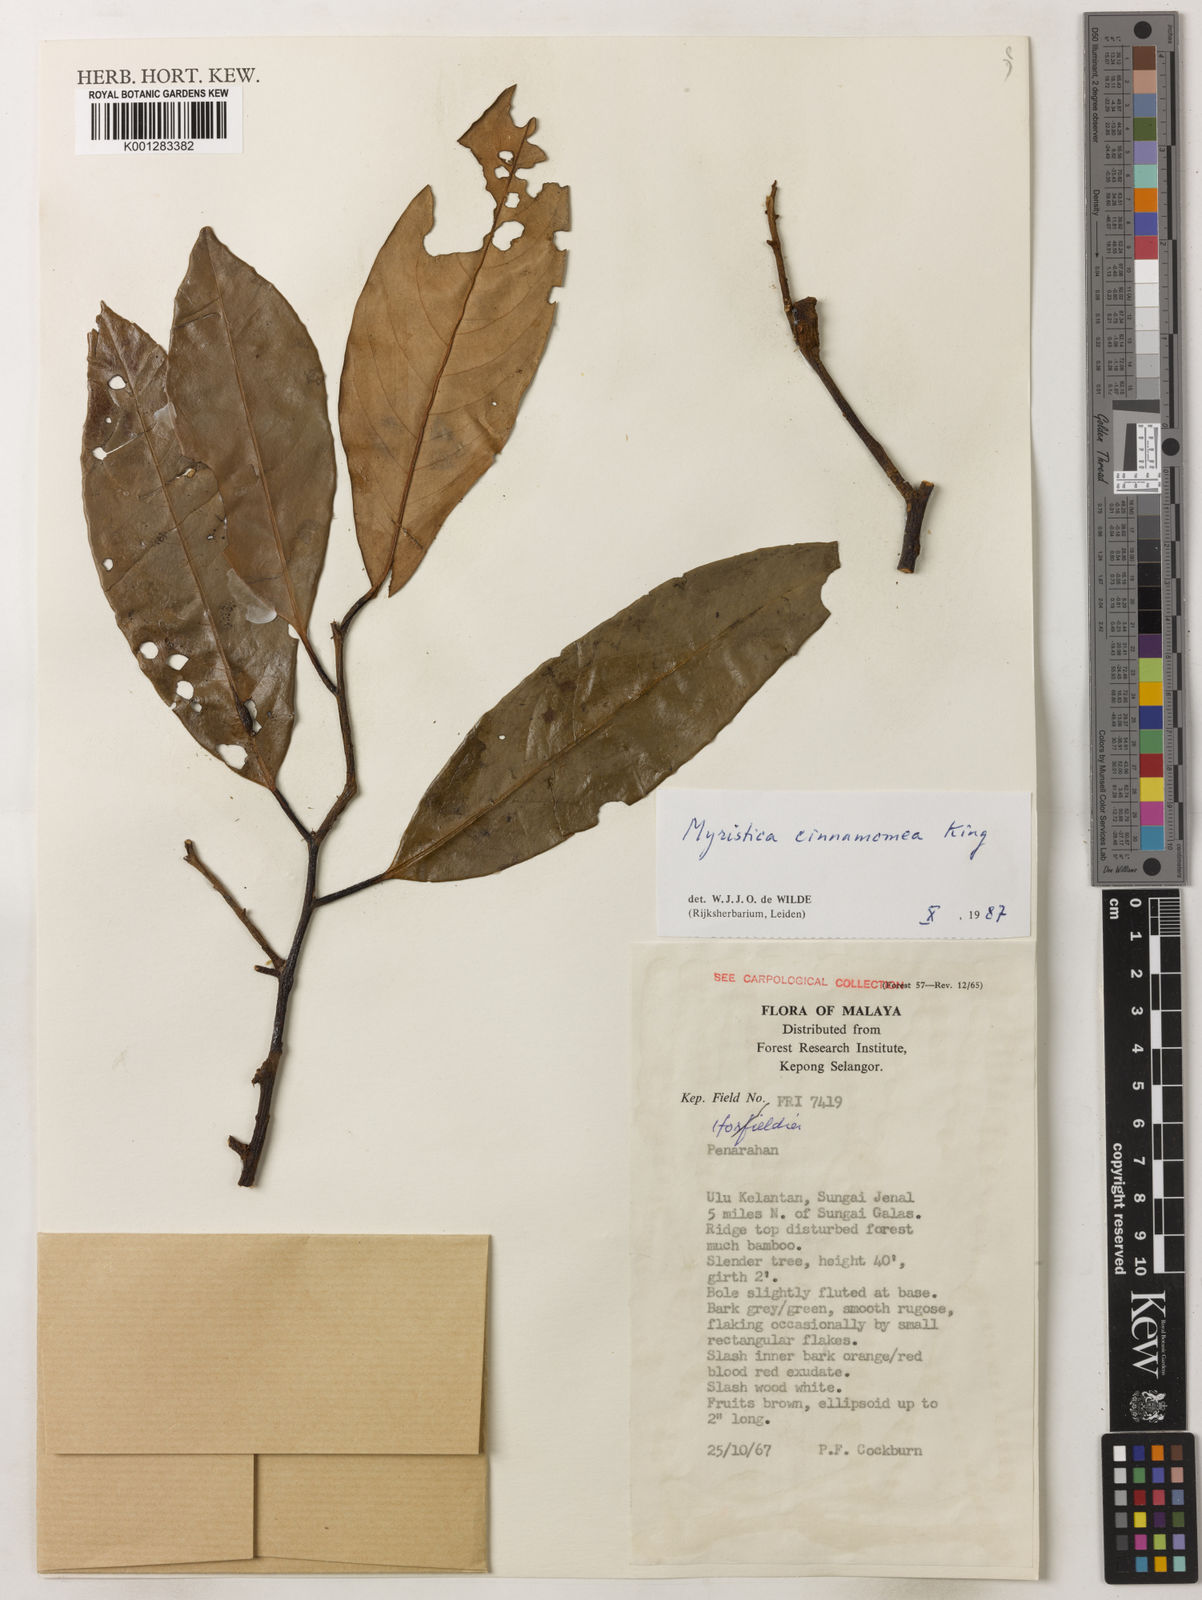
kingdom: Plantae
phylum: Tracheophyta
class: Magnoliopsida
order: Magnoliales
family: Myristicaceae
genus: Myristica
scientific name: Myristica cinnamomea
